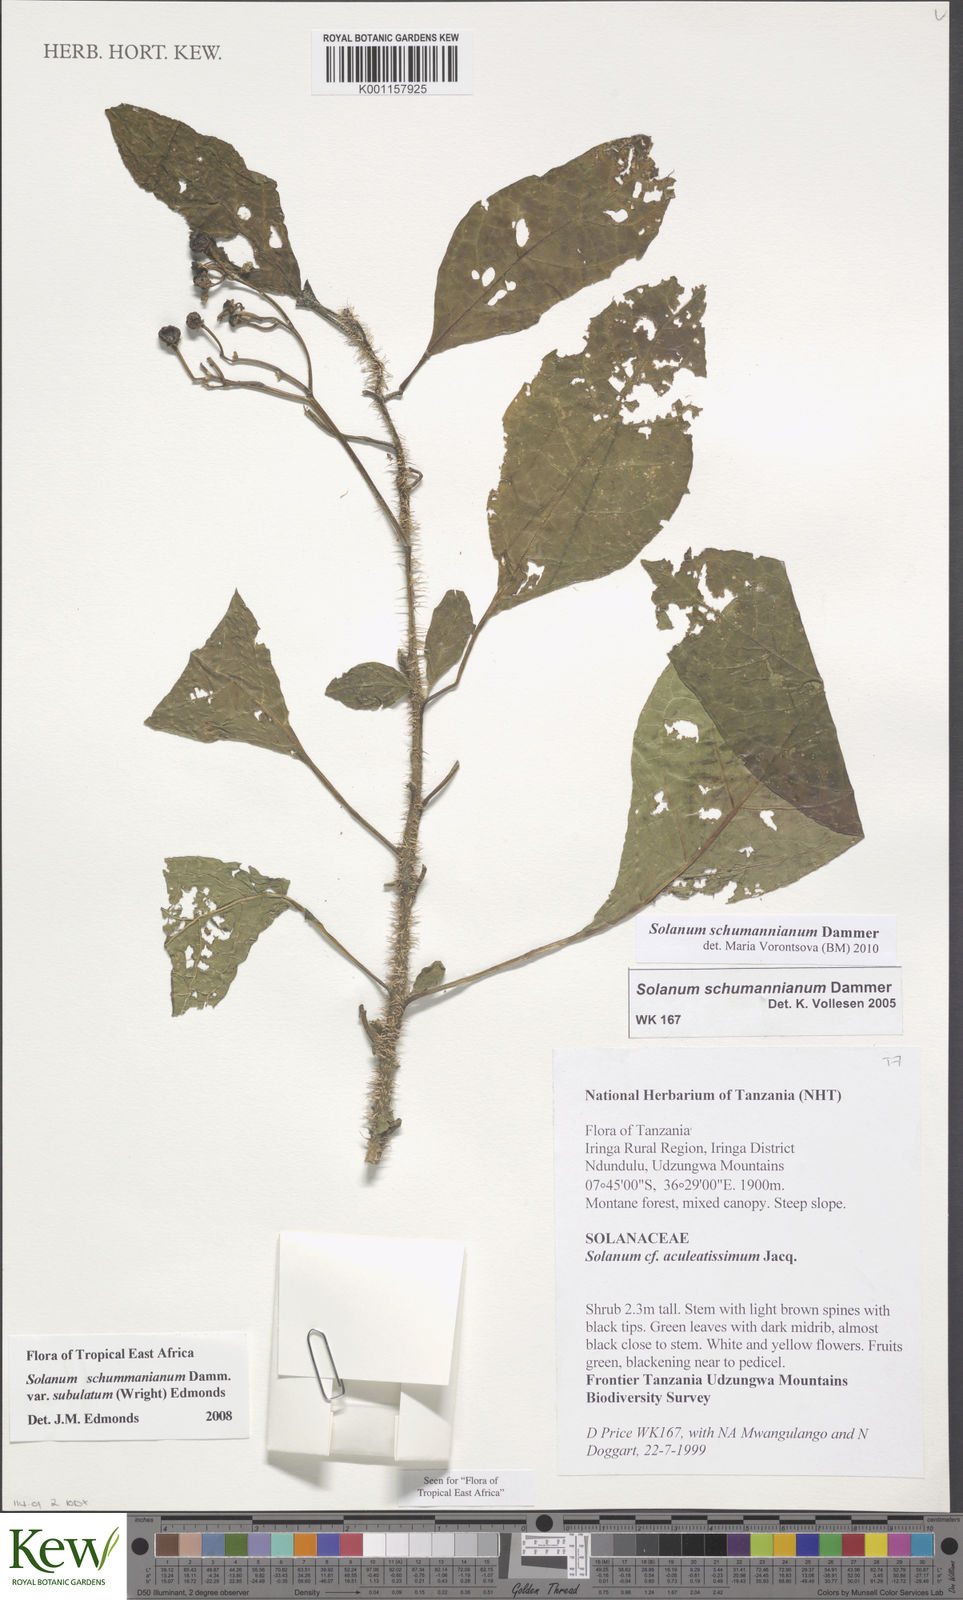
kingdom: Plantae
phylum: Tracheophyta
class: Magnoliopsida
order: Solanales
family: Solanaceae
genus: Solanum
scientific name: Solanum schumannianum
